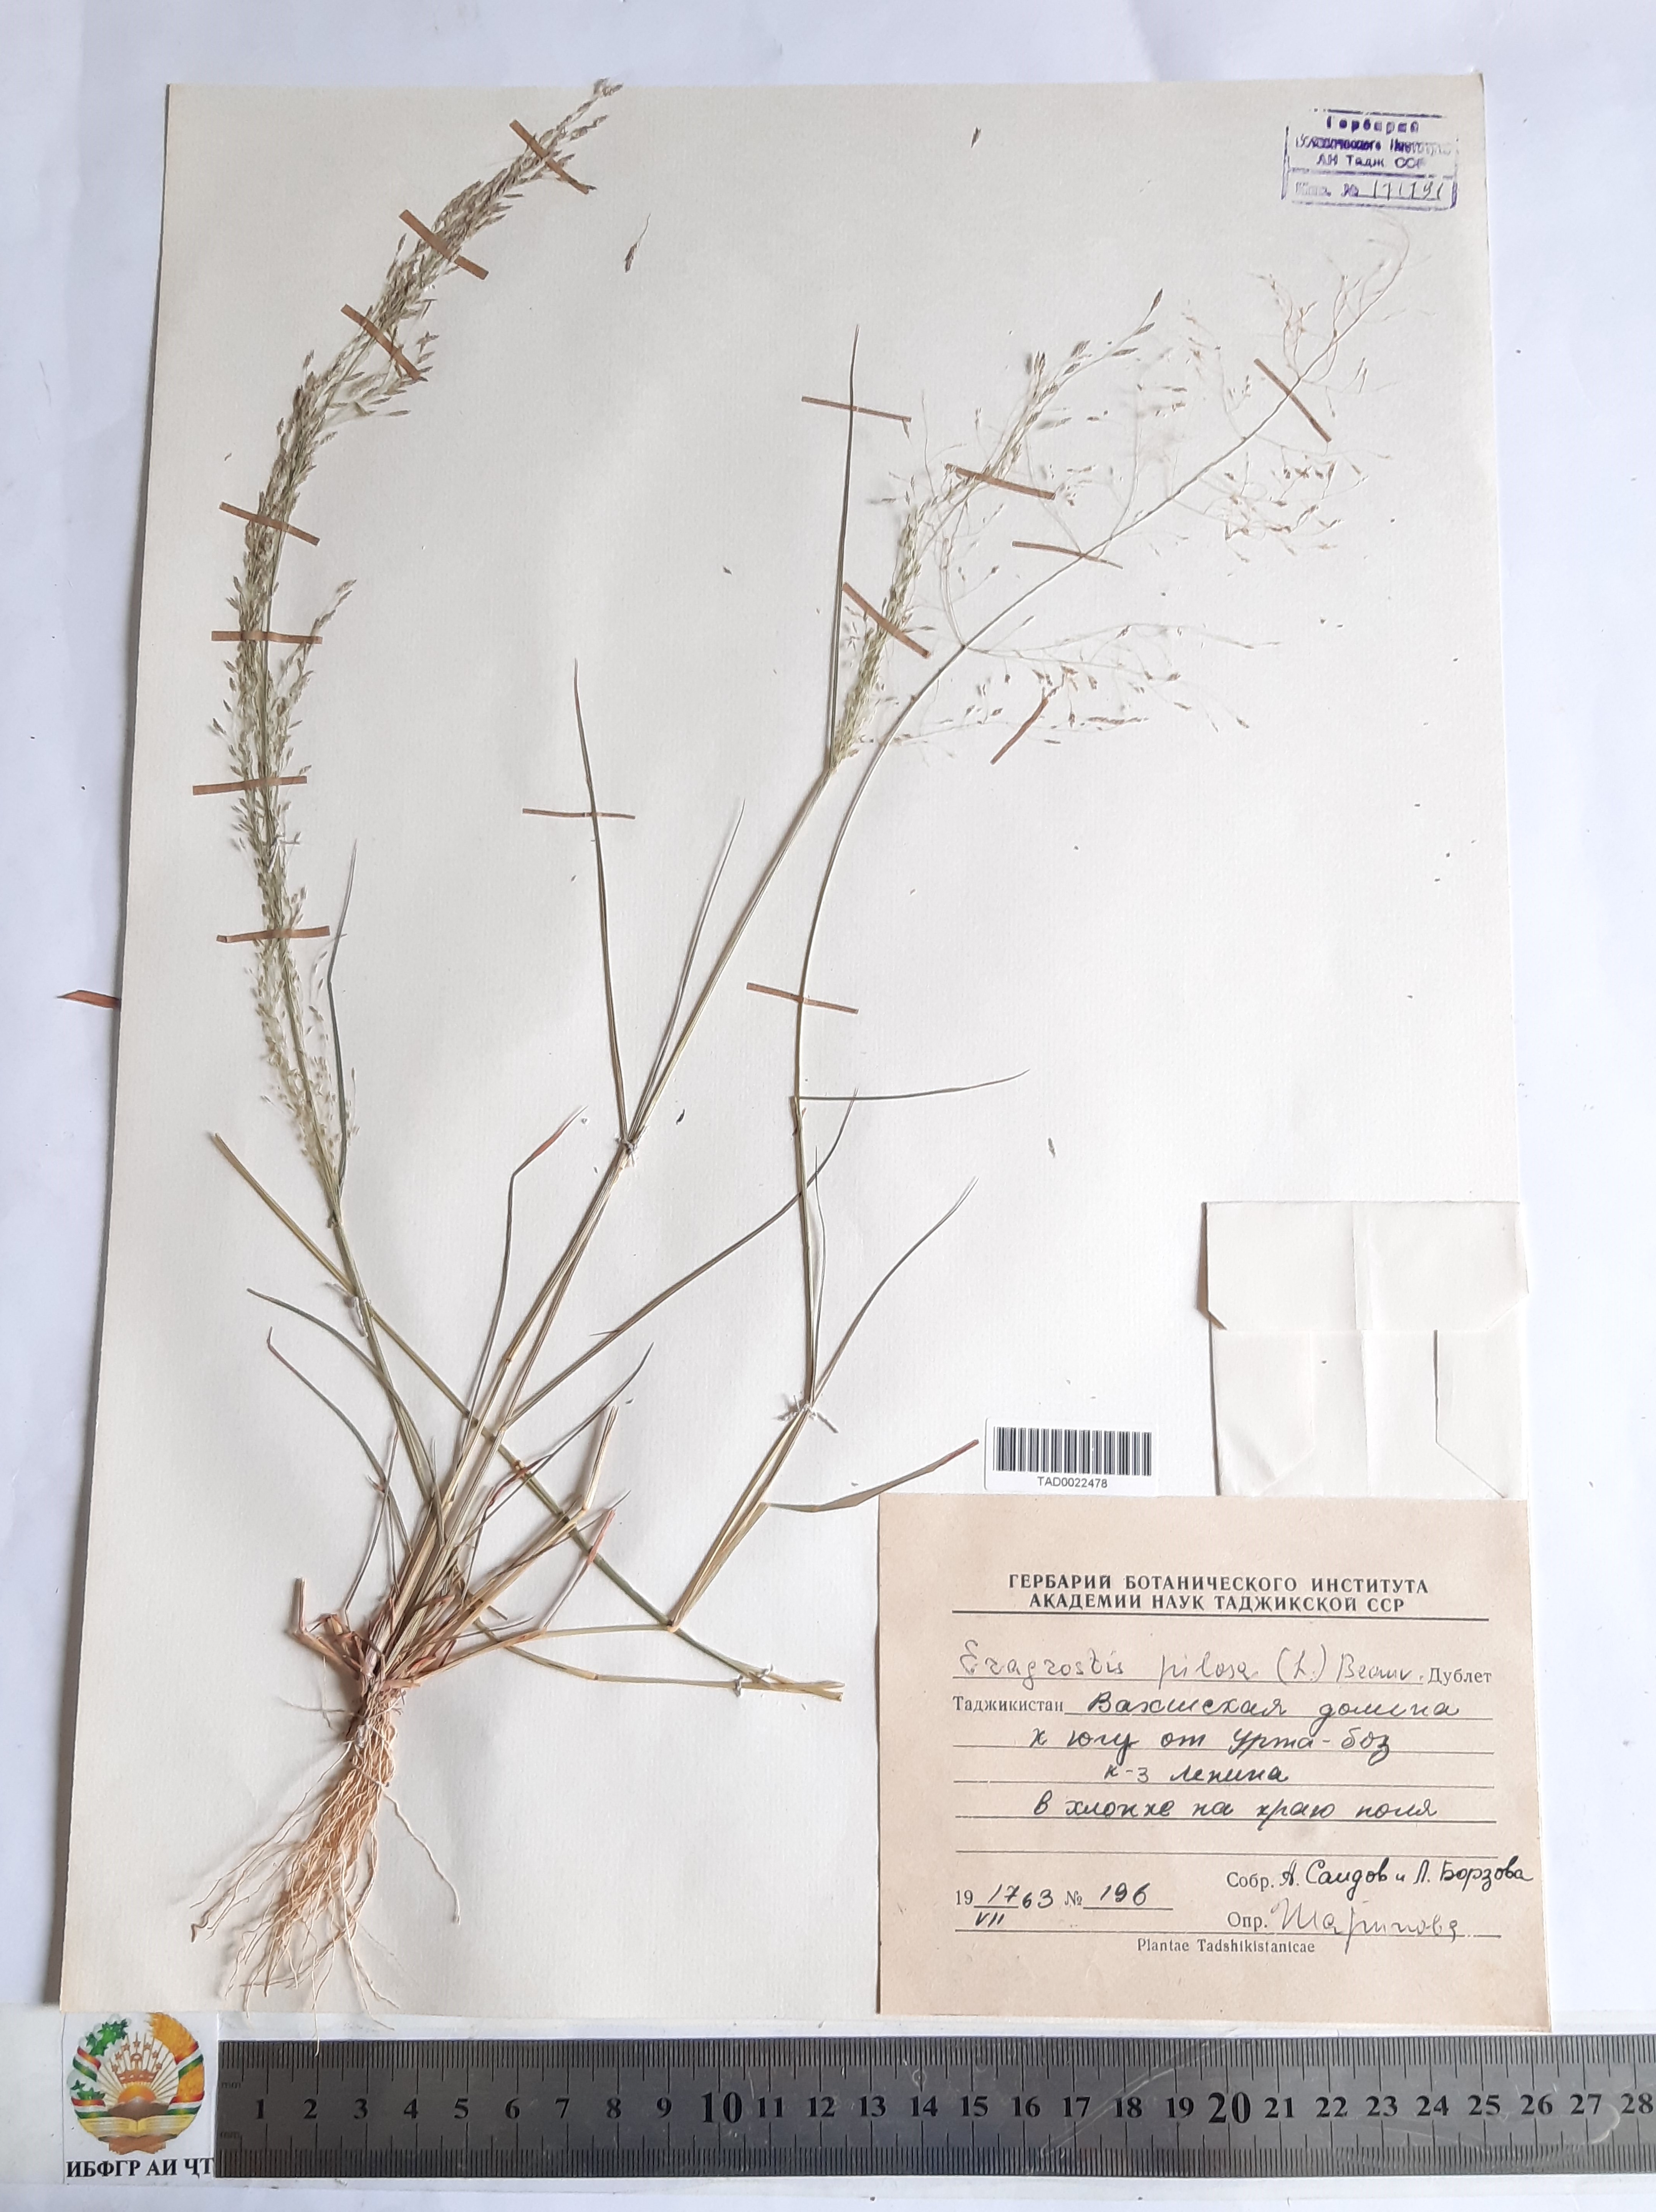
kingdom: Plantae
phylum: Tracheophyta
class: Liliopsida
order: Poales
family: Poaceae
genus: Eragrostis
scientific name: Eragrostis pilosa
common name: Indian lovegrass
